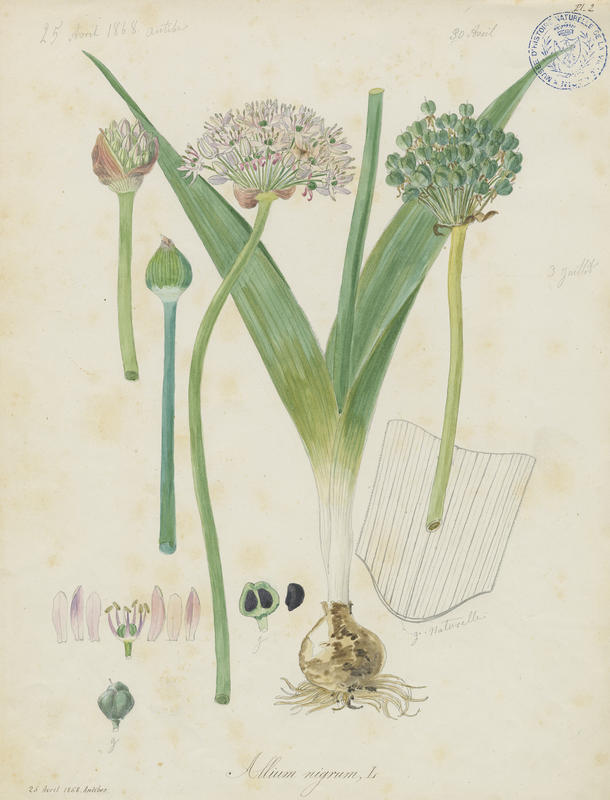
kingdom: Plantae
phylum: Tracheophyta
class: Liliopsida
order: Asparagales
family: Amaryllidaceae
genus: Allium
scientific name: Allium nigrum
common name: Black garlic
